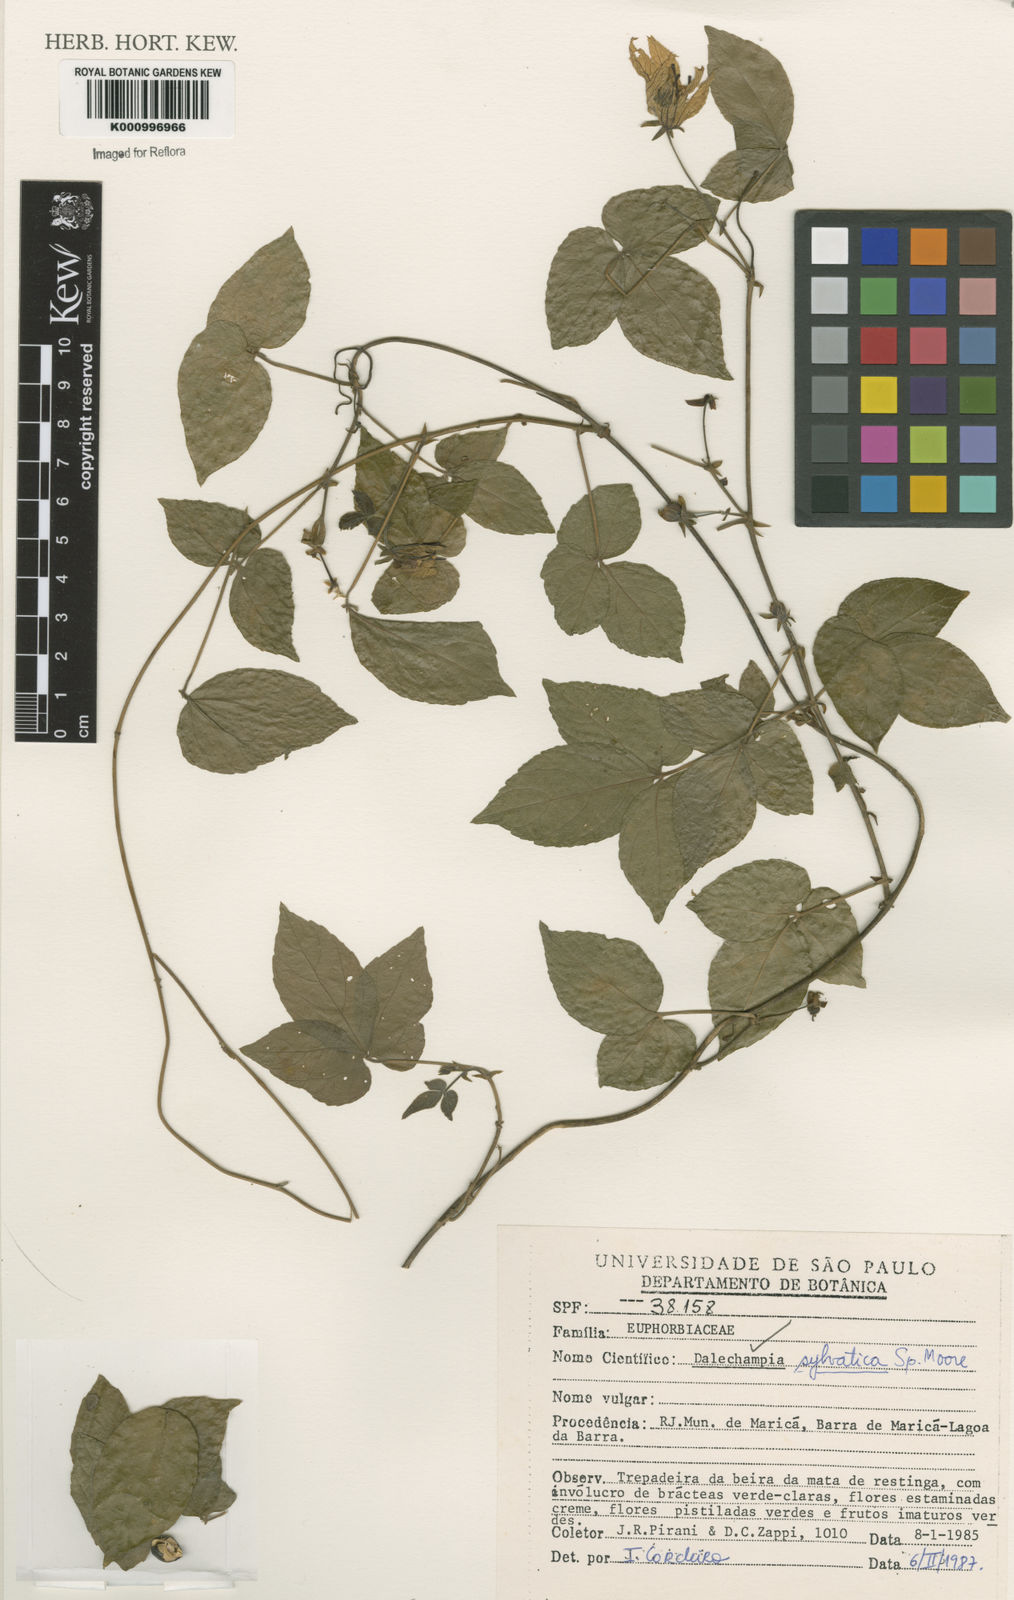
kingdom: Plantae
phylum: Tracheophyta
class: Magnoliopsida
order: Malpighiales
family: Euphorbiaceae
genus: Dalechampia
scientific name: Dalechampia
